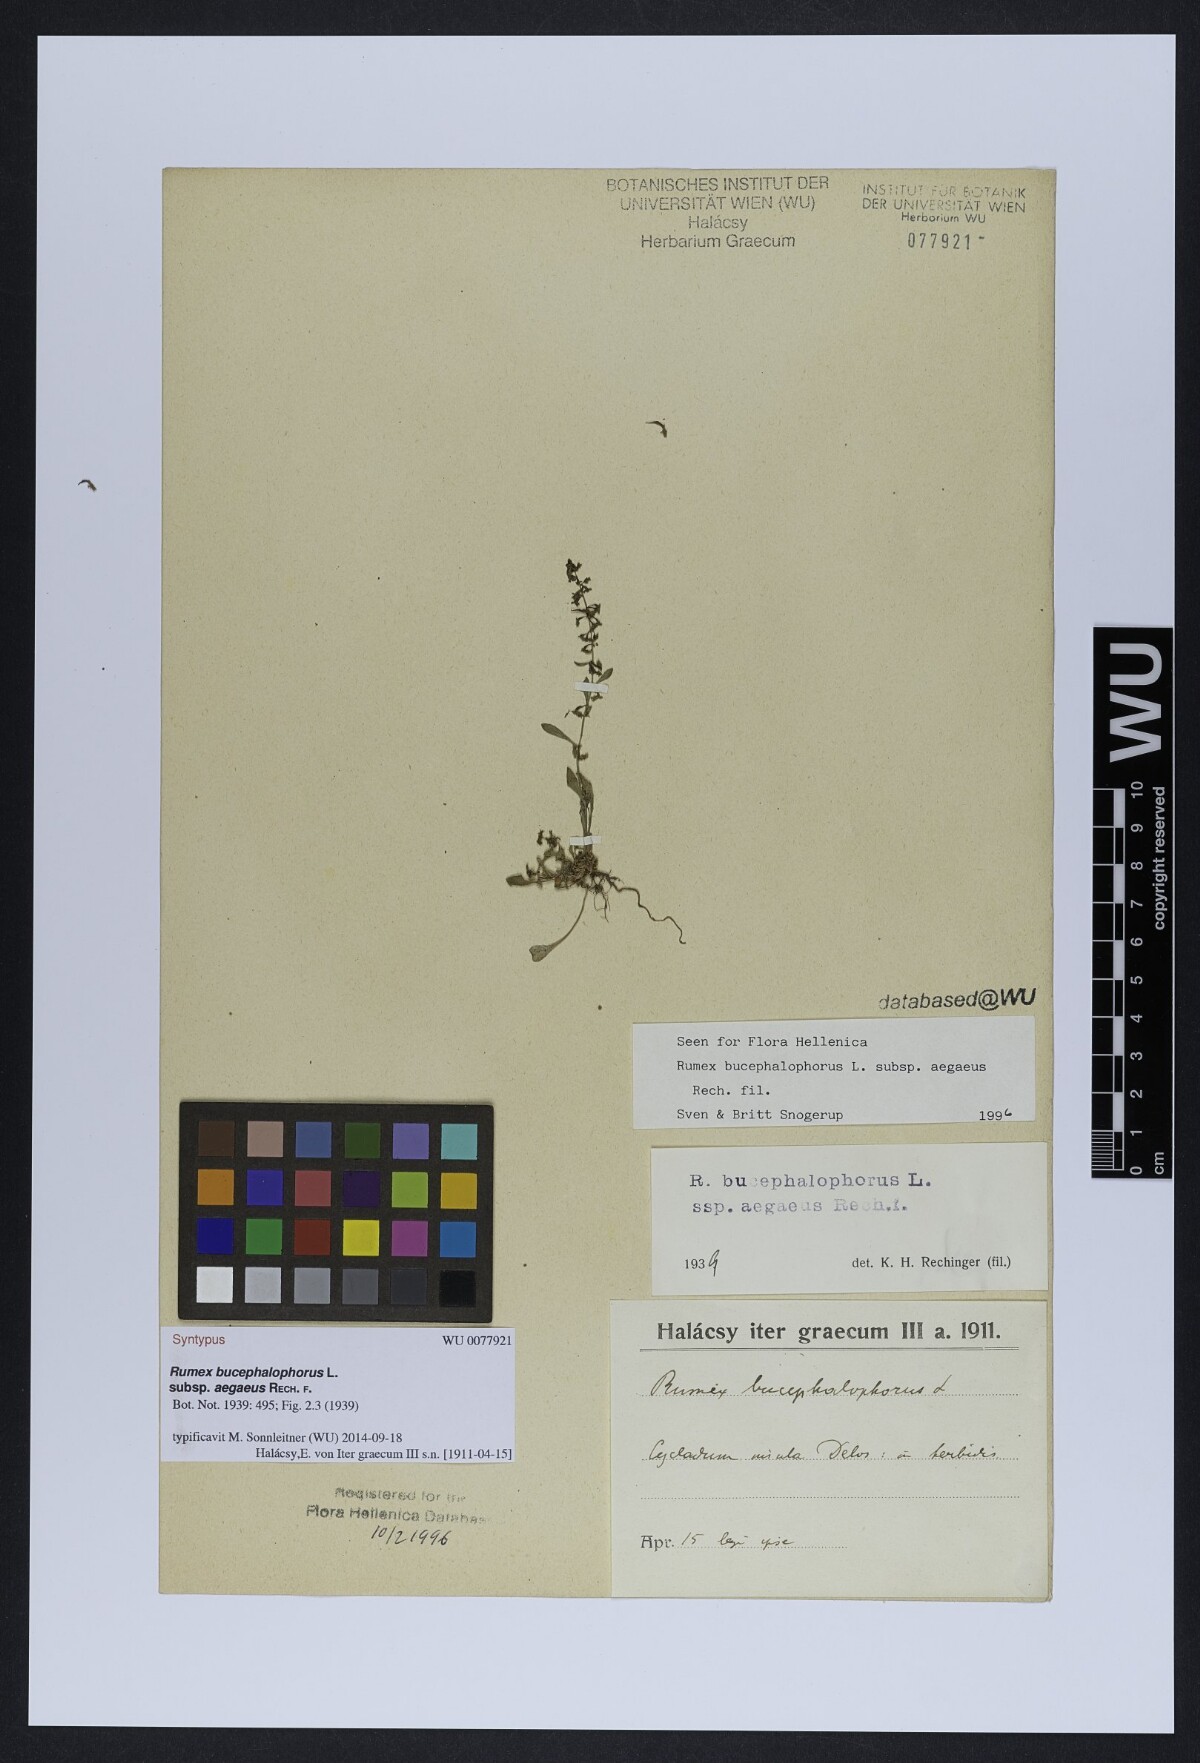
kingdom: Plantae
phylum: Tracheophyta
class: Magnoliopsida
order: Caryophyllales
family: Polygonaceae
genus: Rumex
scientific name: Rumex bucephalophorus
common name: Red dock
